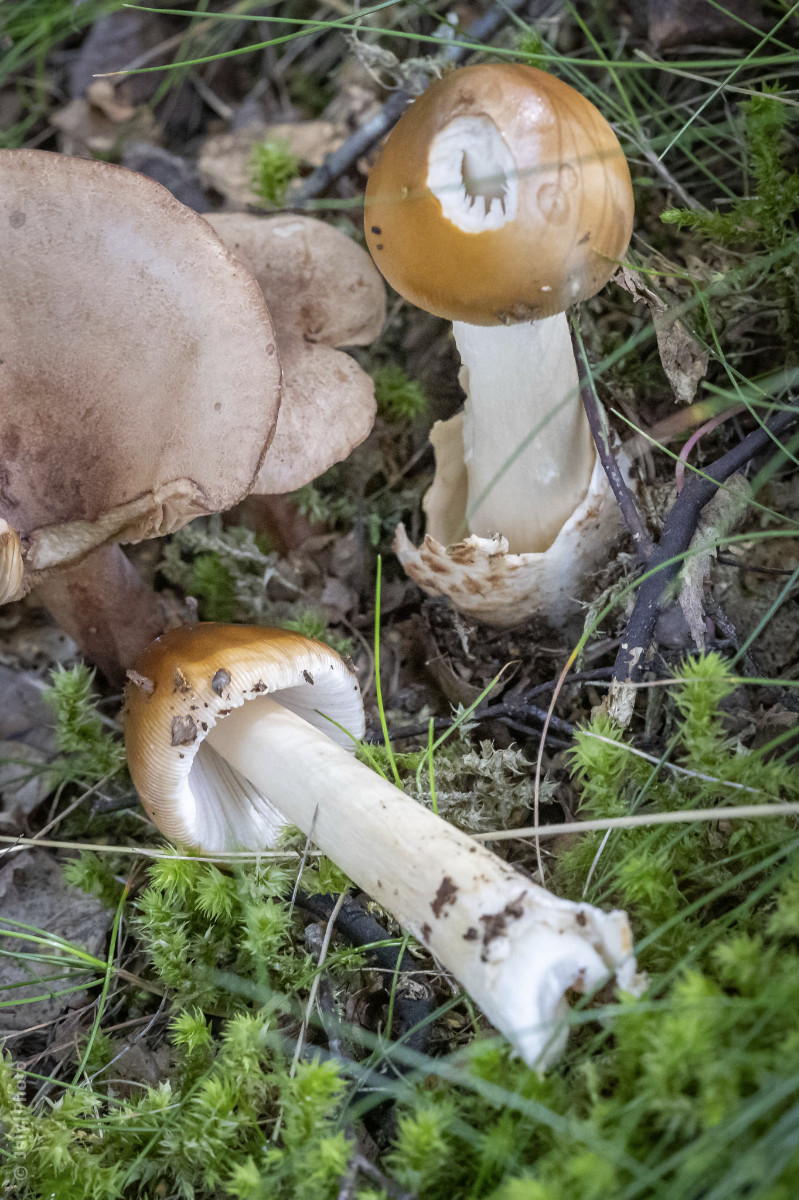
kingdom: Fungi
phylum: Basidiomycota
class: Agaricomycetes
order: Agaricales
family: Amanitaceae
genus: Amanita
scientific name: Amanita
